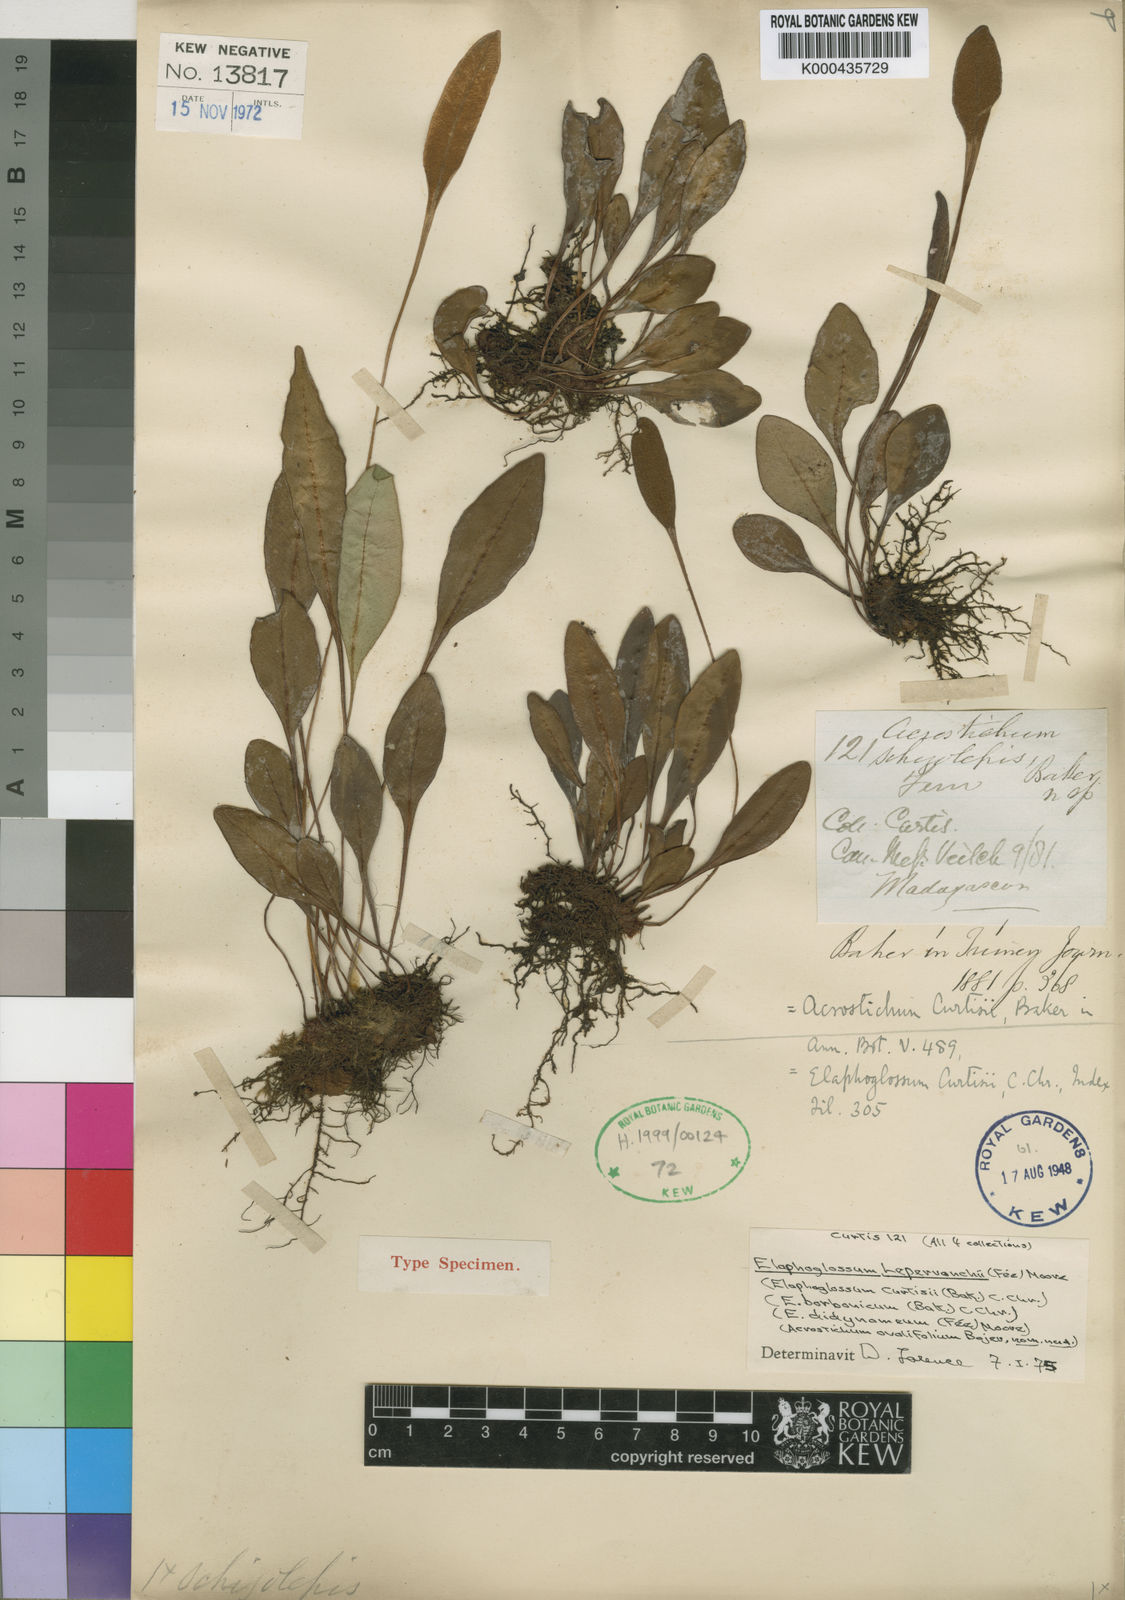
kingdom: Plantae
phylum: Tracheophyta
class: Polypodiopsida
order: Polypodiales
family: Dryopteridaceae
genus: Elaphoglossum
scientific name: Elaphoglossum lepervanchii
